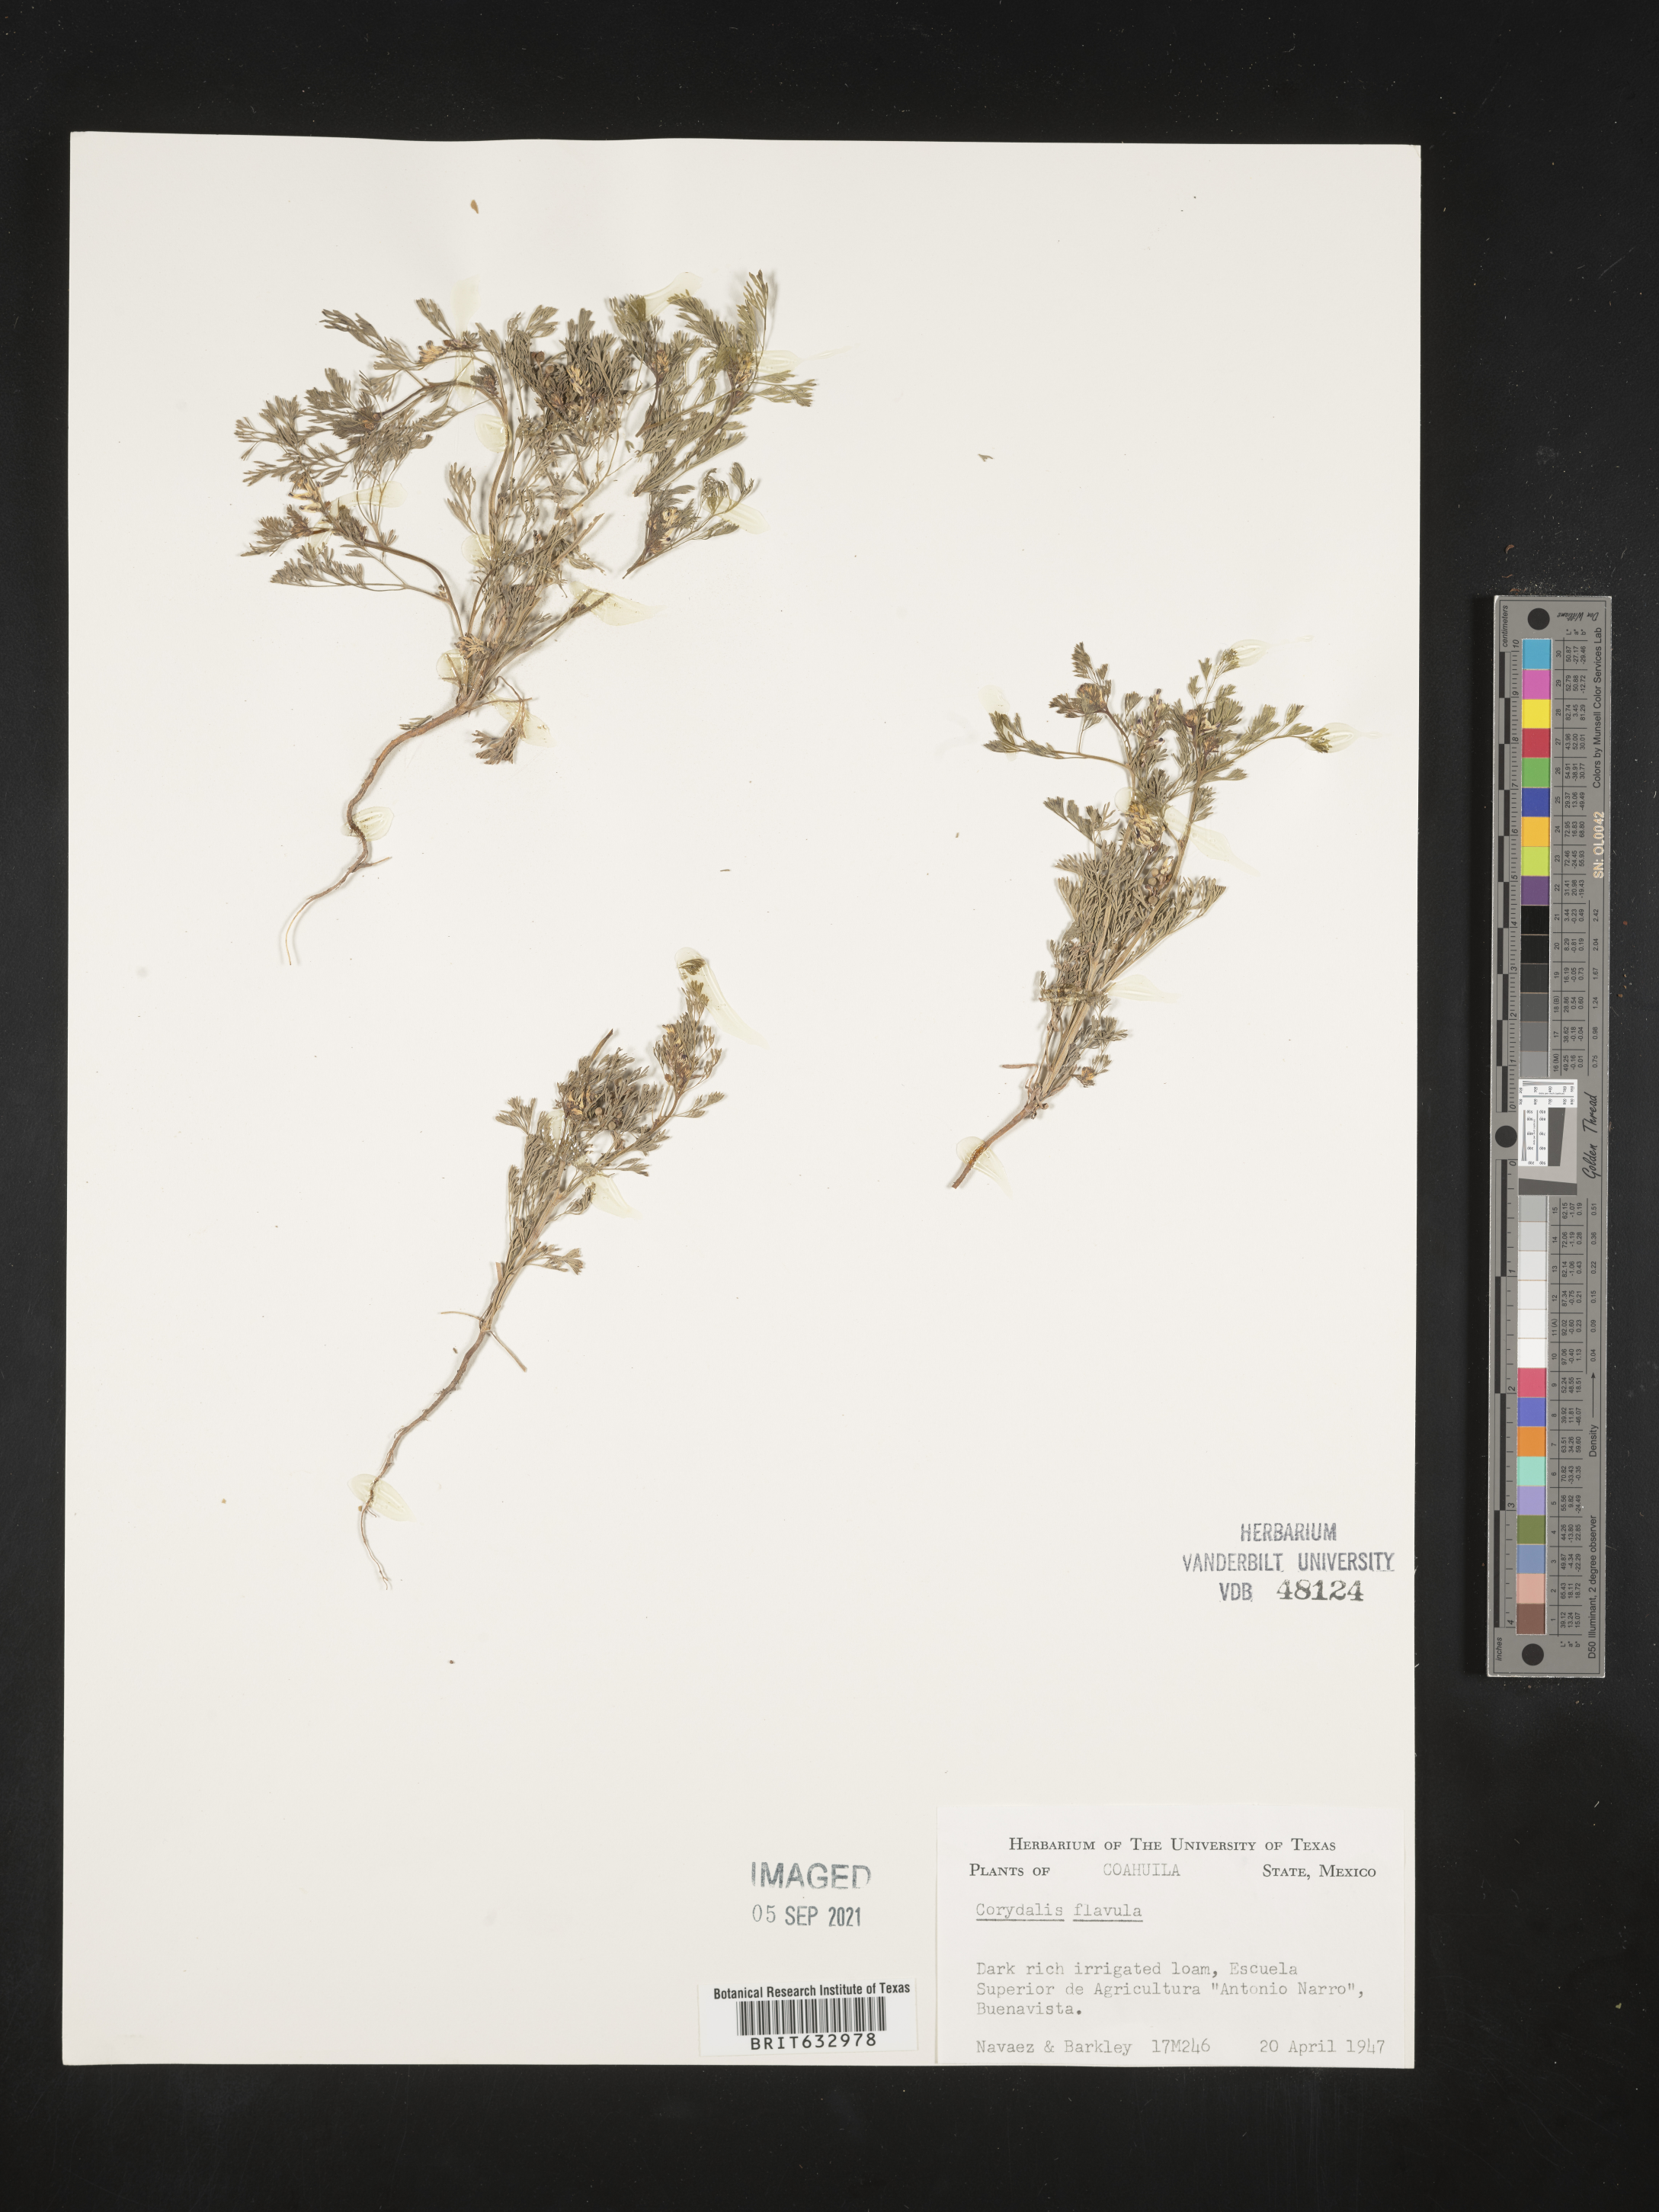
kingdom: Plantae
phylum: Tracheophyta
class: Magnoliopsida
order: Ranunculales
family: Papaveraceae
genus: Corydalis
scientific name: Corydalis
